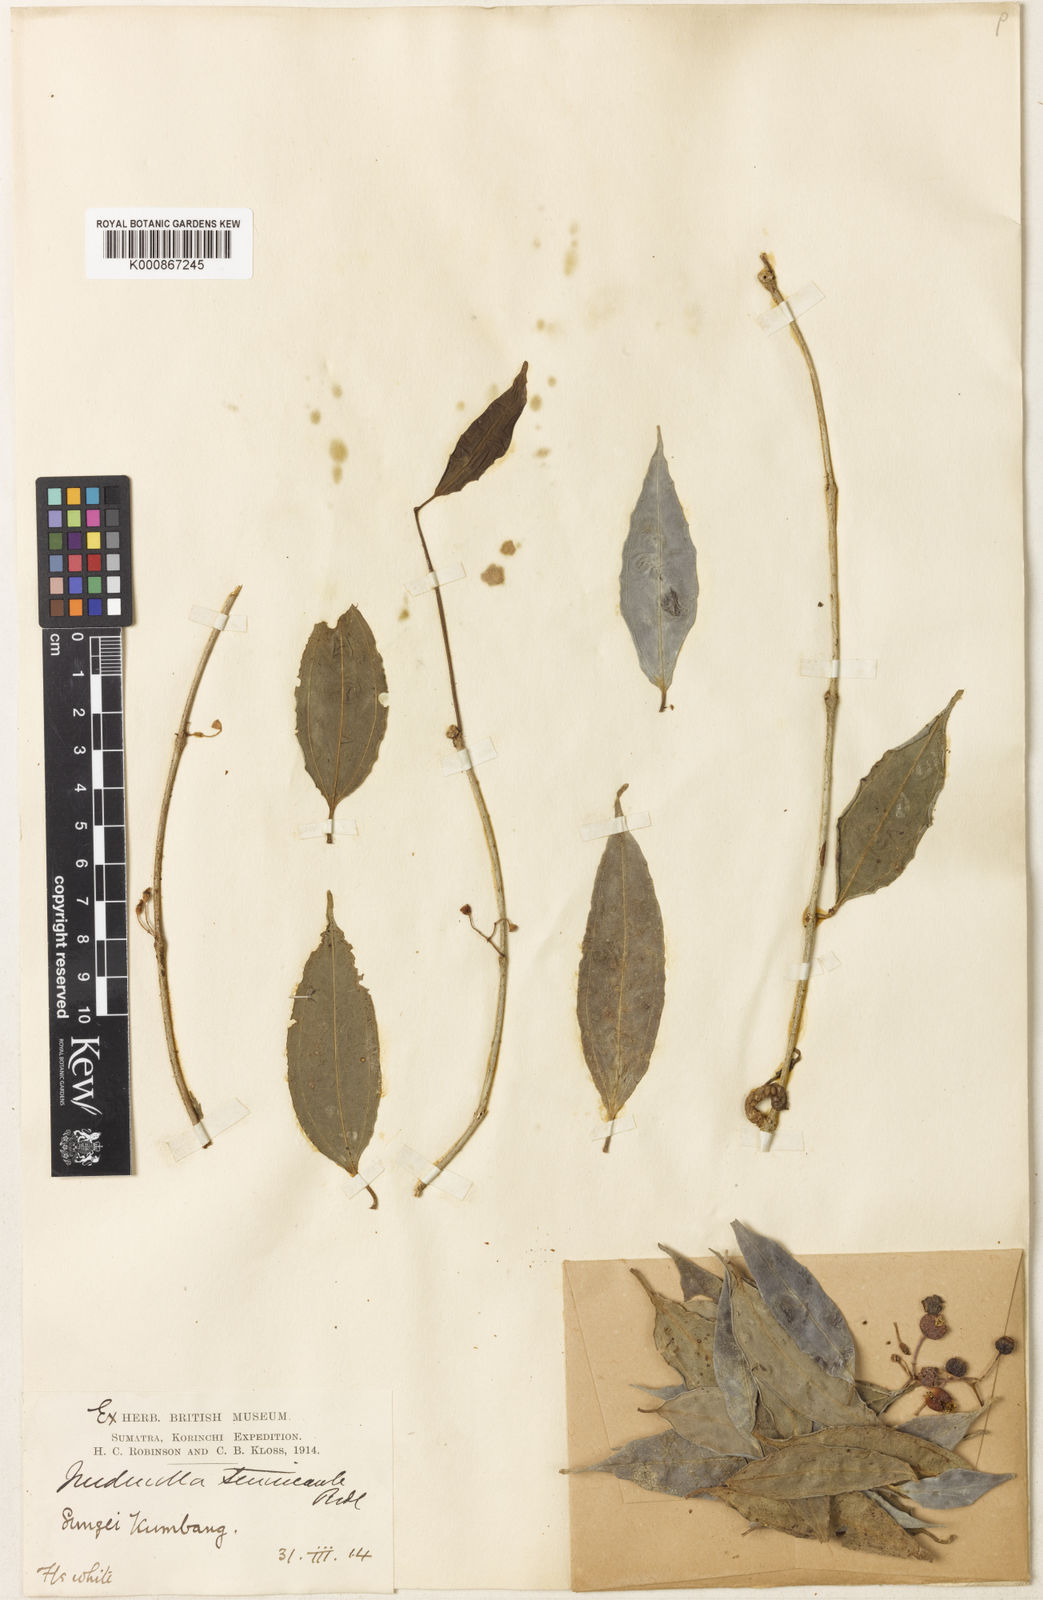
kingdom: Plantae
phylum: Tracheophyta
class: Magnoliopsida
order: Myrtales
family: Melastomataceae
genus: Medinilla
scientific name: Medinilla tenuicaulis
